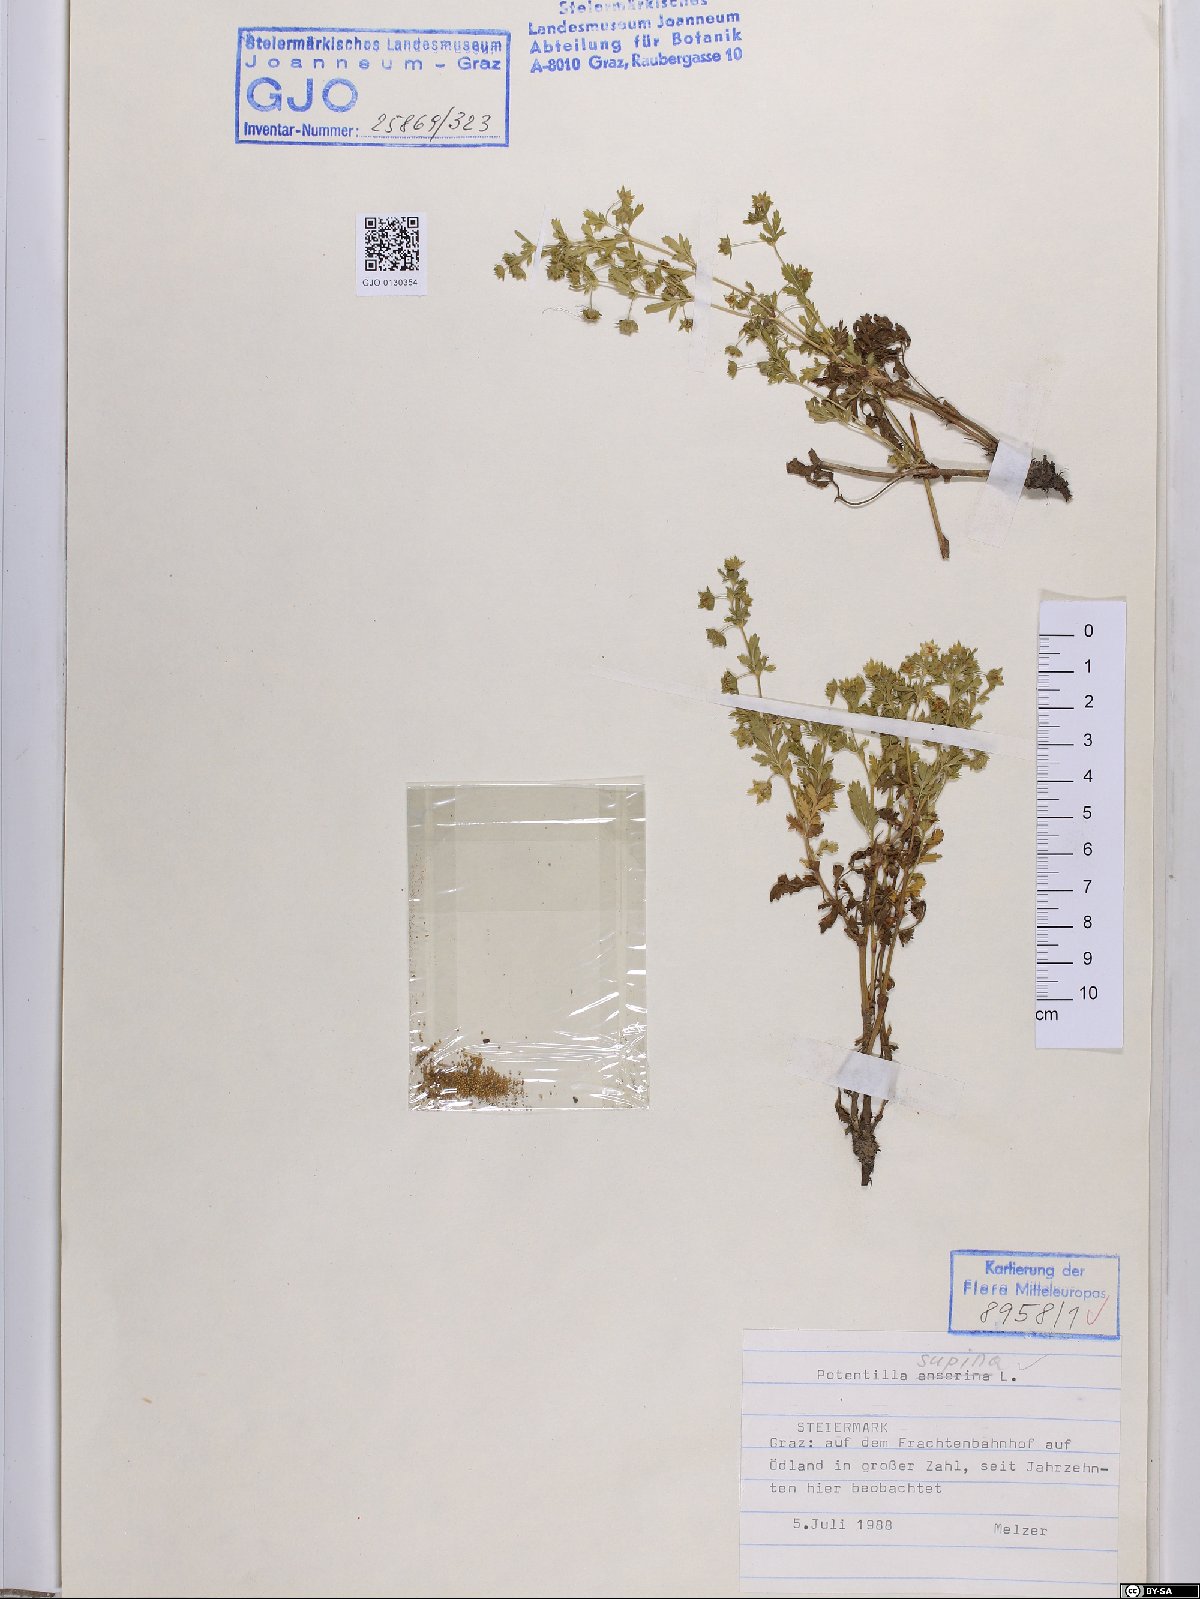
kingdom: Plantae
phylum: Tracheophyta
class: Magnoliopsida
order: Rosales
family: Rosaceae
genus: Potentilla
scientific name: Potentilla supina
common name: Prostrate cinquefoil
